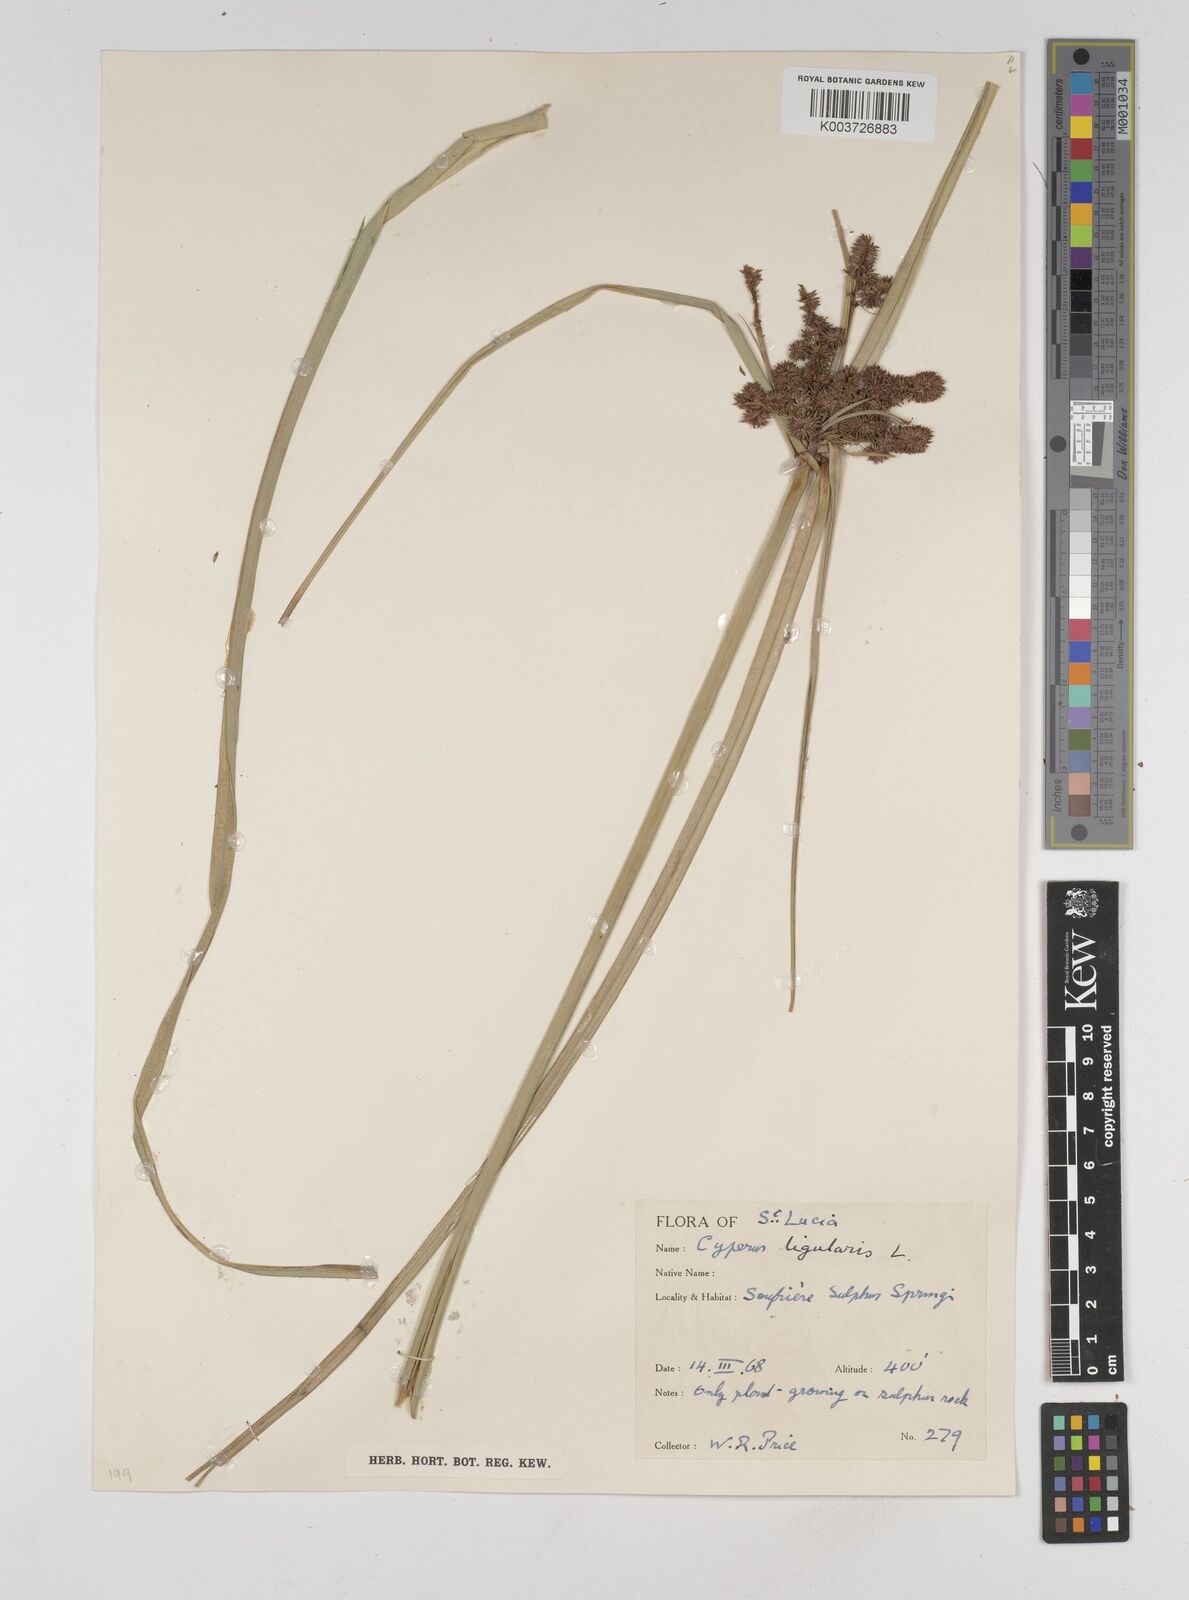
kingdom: Plantae
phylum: Tracheophyta
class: Liliopsida
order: Poales
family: Cyperaceae
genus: Cyperus
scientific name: Cyperus ligularis
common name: Swamp flat sedge
